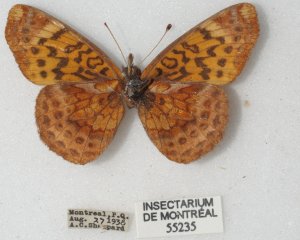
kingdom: Animalia
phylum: Arthropoda
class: Insecta
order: Lepidoptera
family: Nymphalidae
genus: Clossiana
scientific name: Clossiana toddi
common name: Meadow Fritillary
